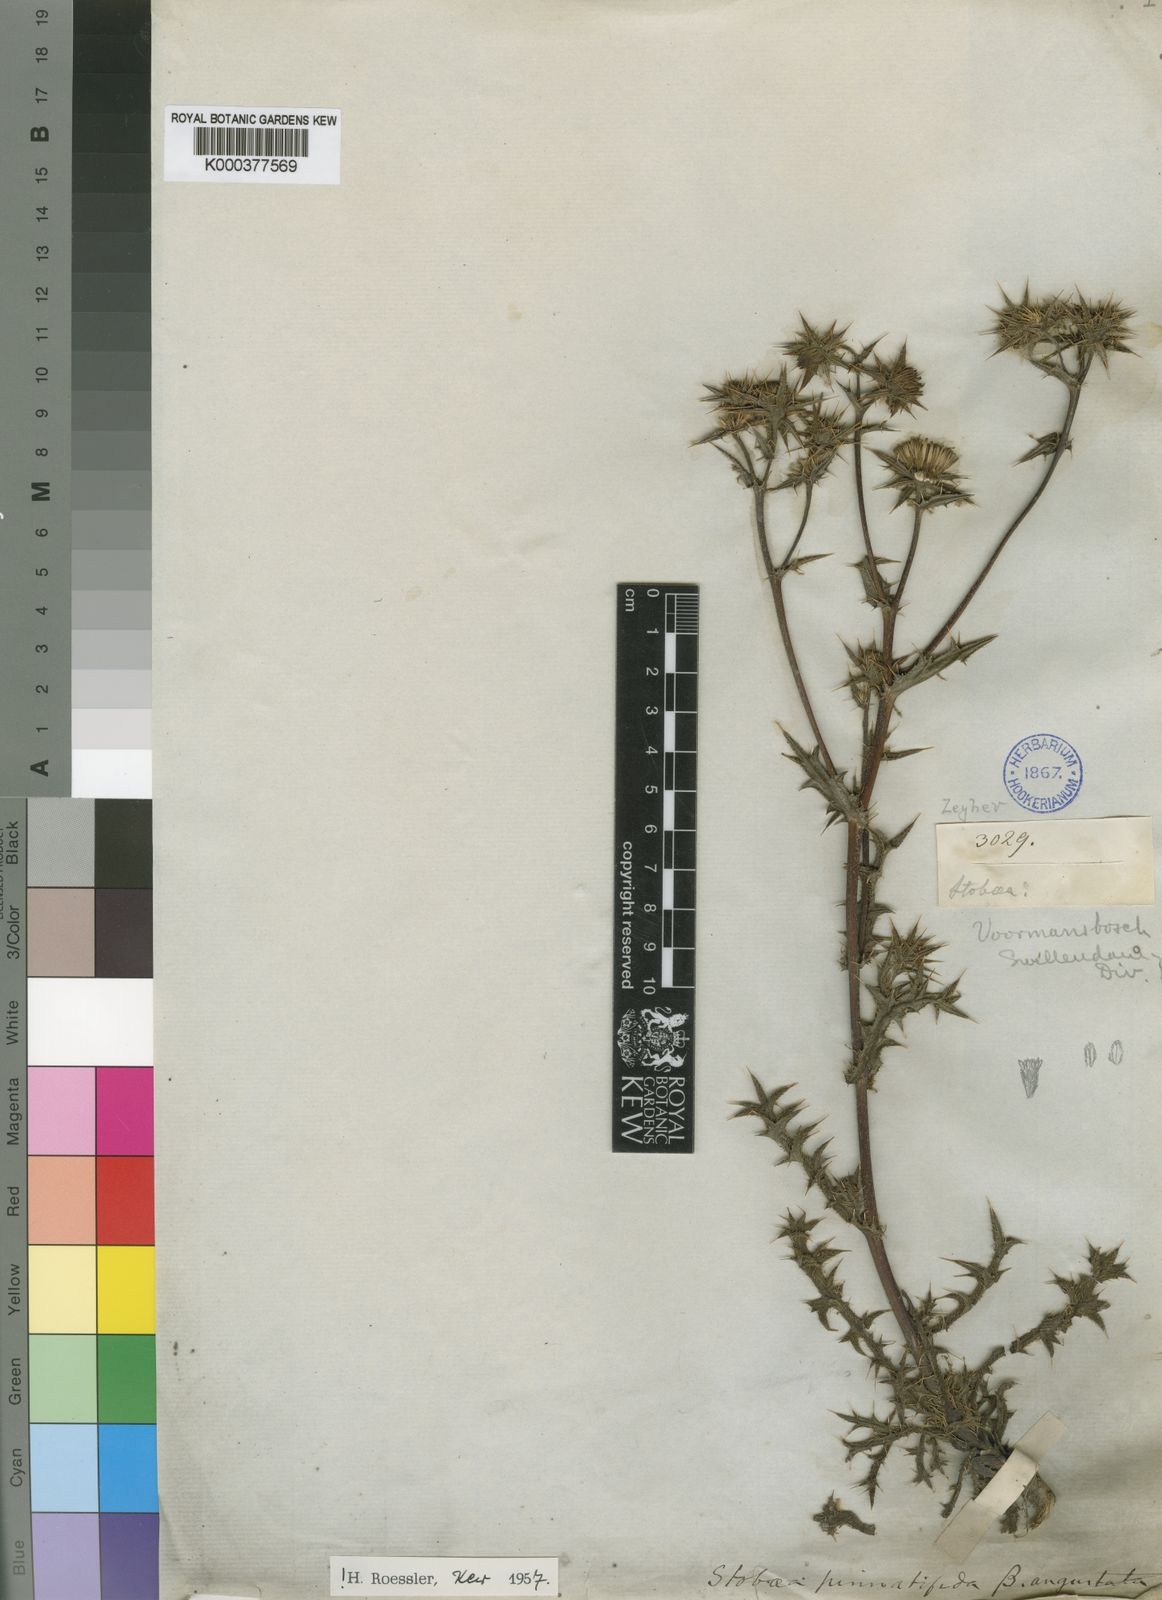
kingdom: Plantae
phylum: Tracheophyta
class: Magnoliopsida
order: Asterales
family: Asteraceae
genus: Berkheya
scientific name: Berkheya pinnatifida
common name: Lobed african thistle
